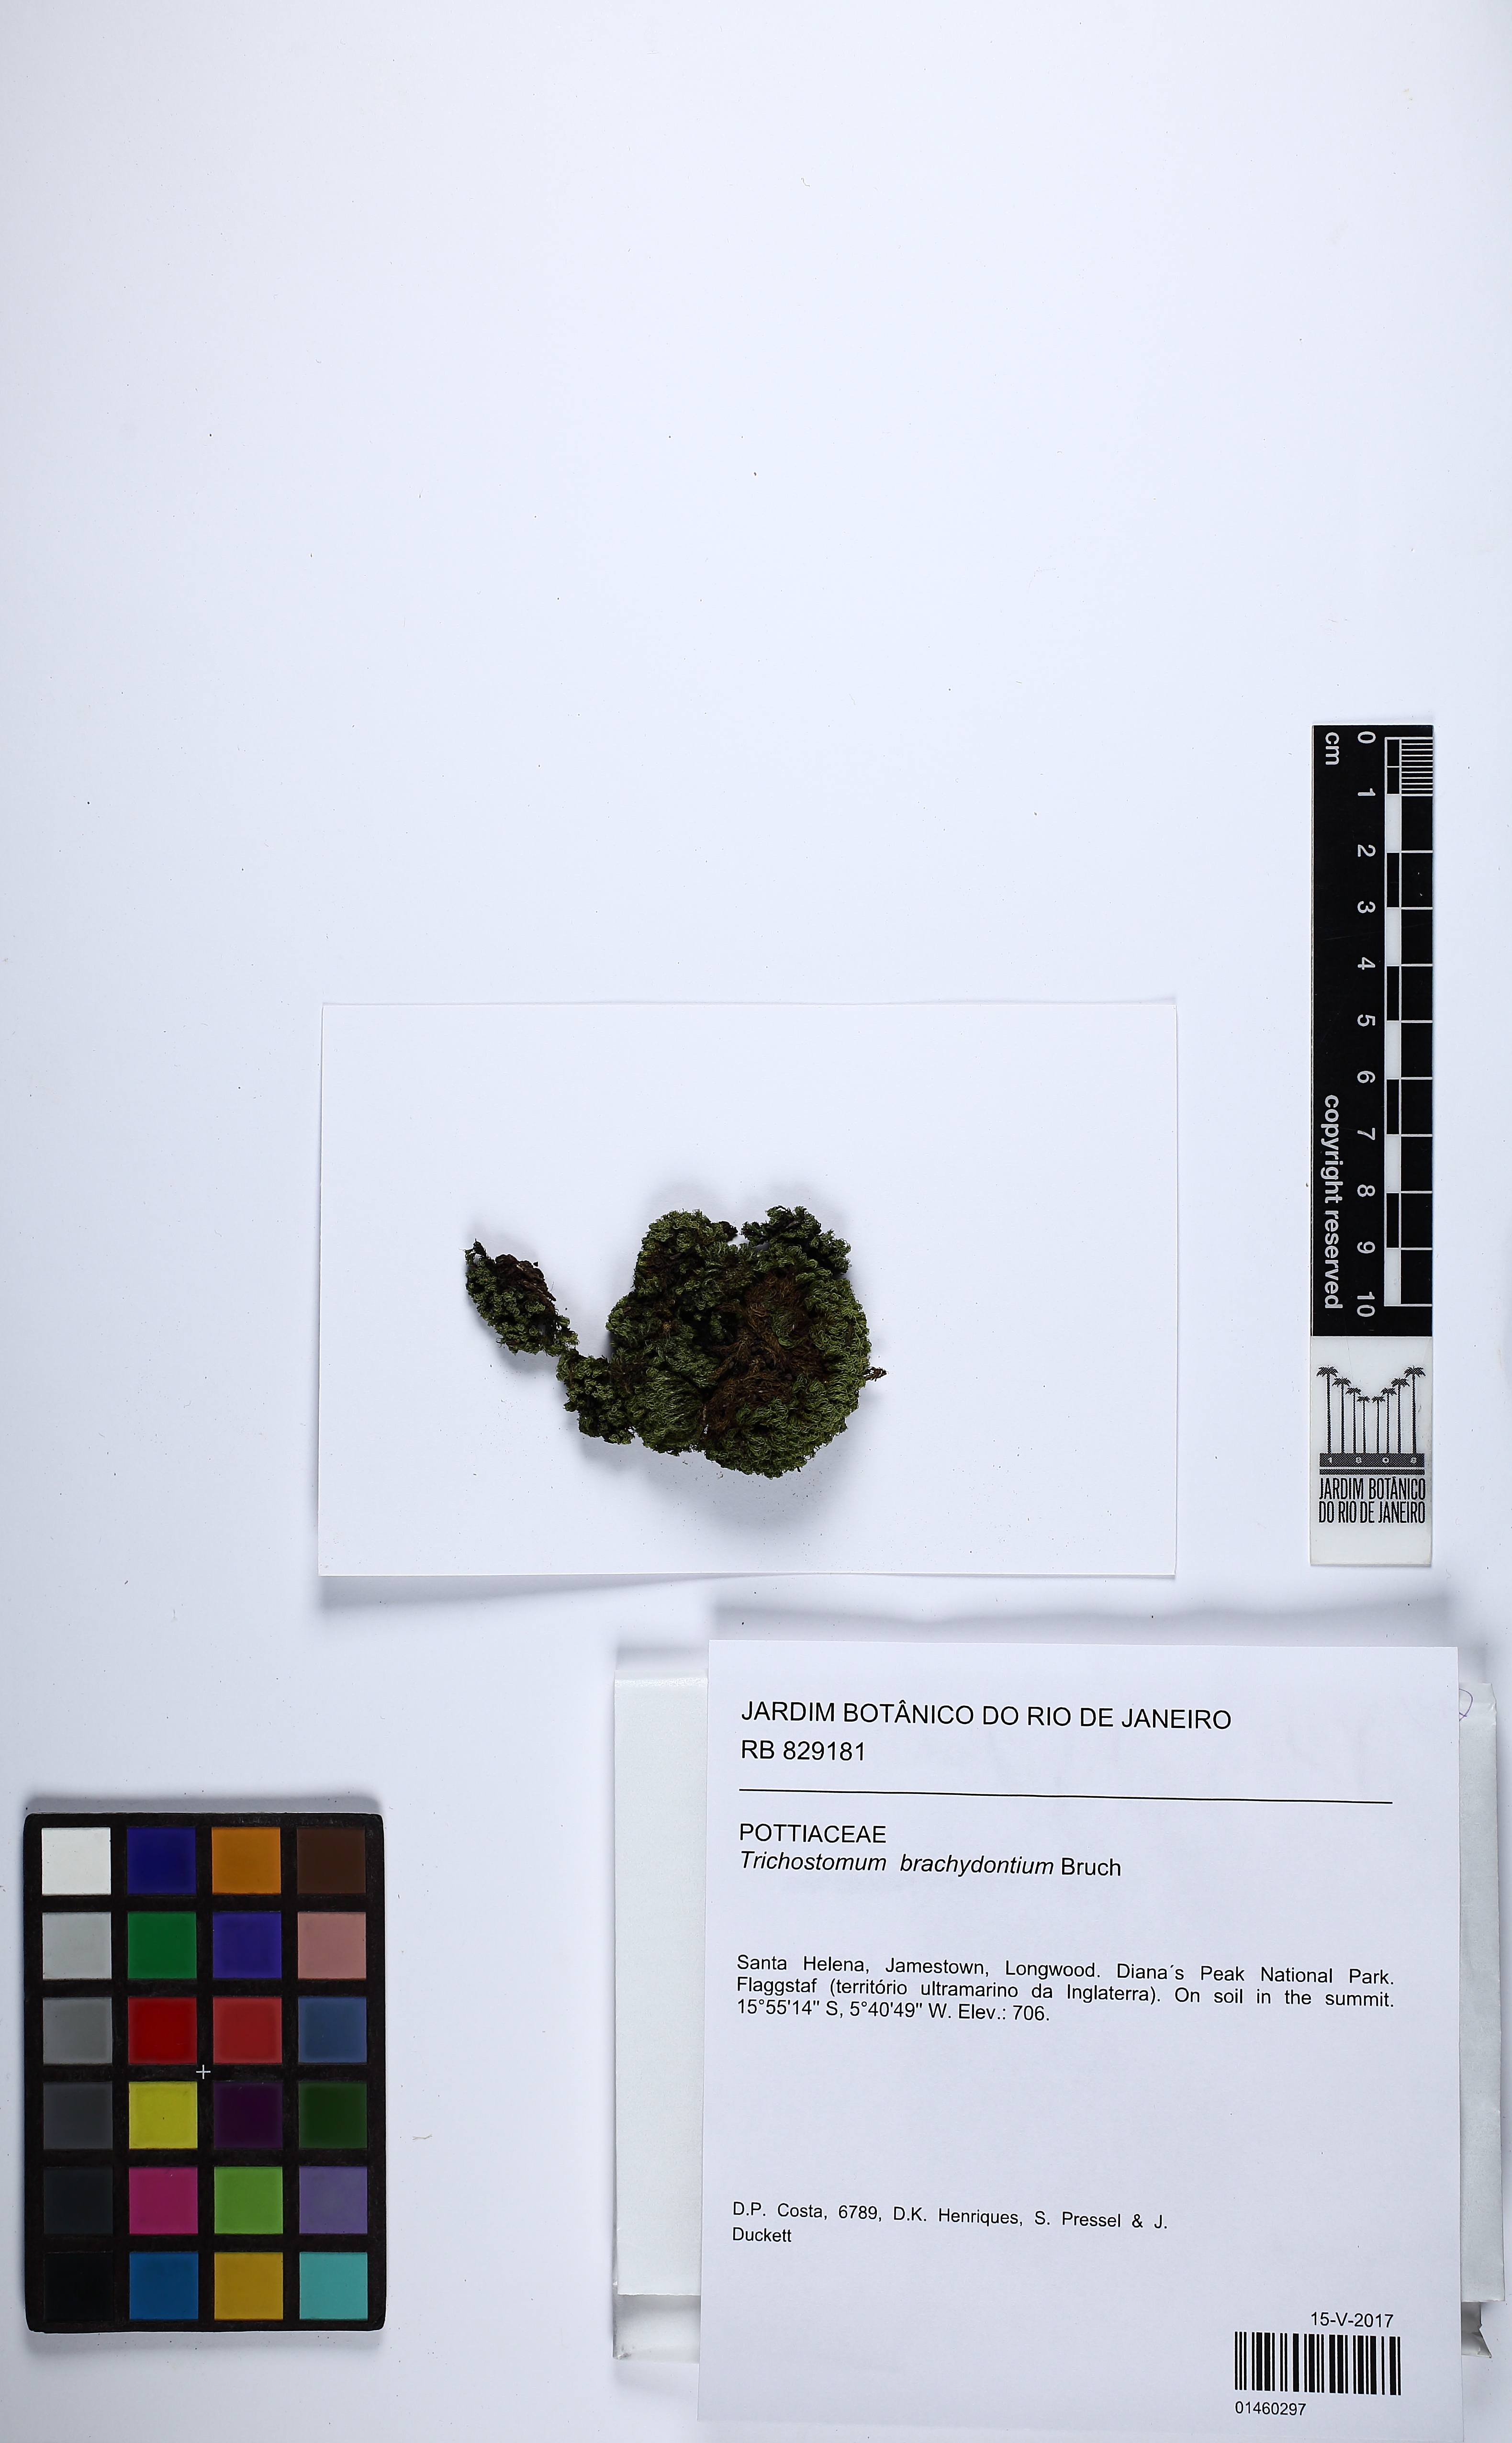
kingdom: Plantae
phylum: Bryophyta
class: Bryopsida
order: Pottiales
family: Pottiaceae
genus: Trichostomum
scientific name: Trichostomum brachydontium
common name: Variable crisp-moss
